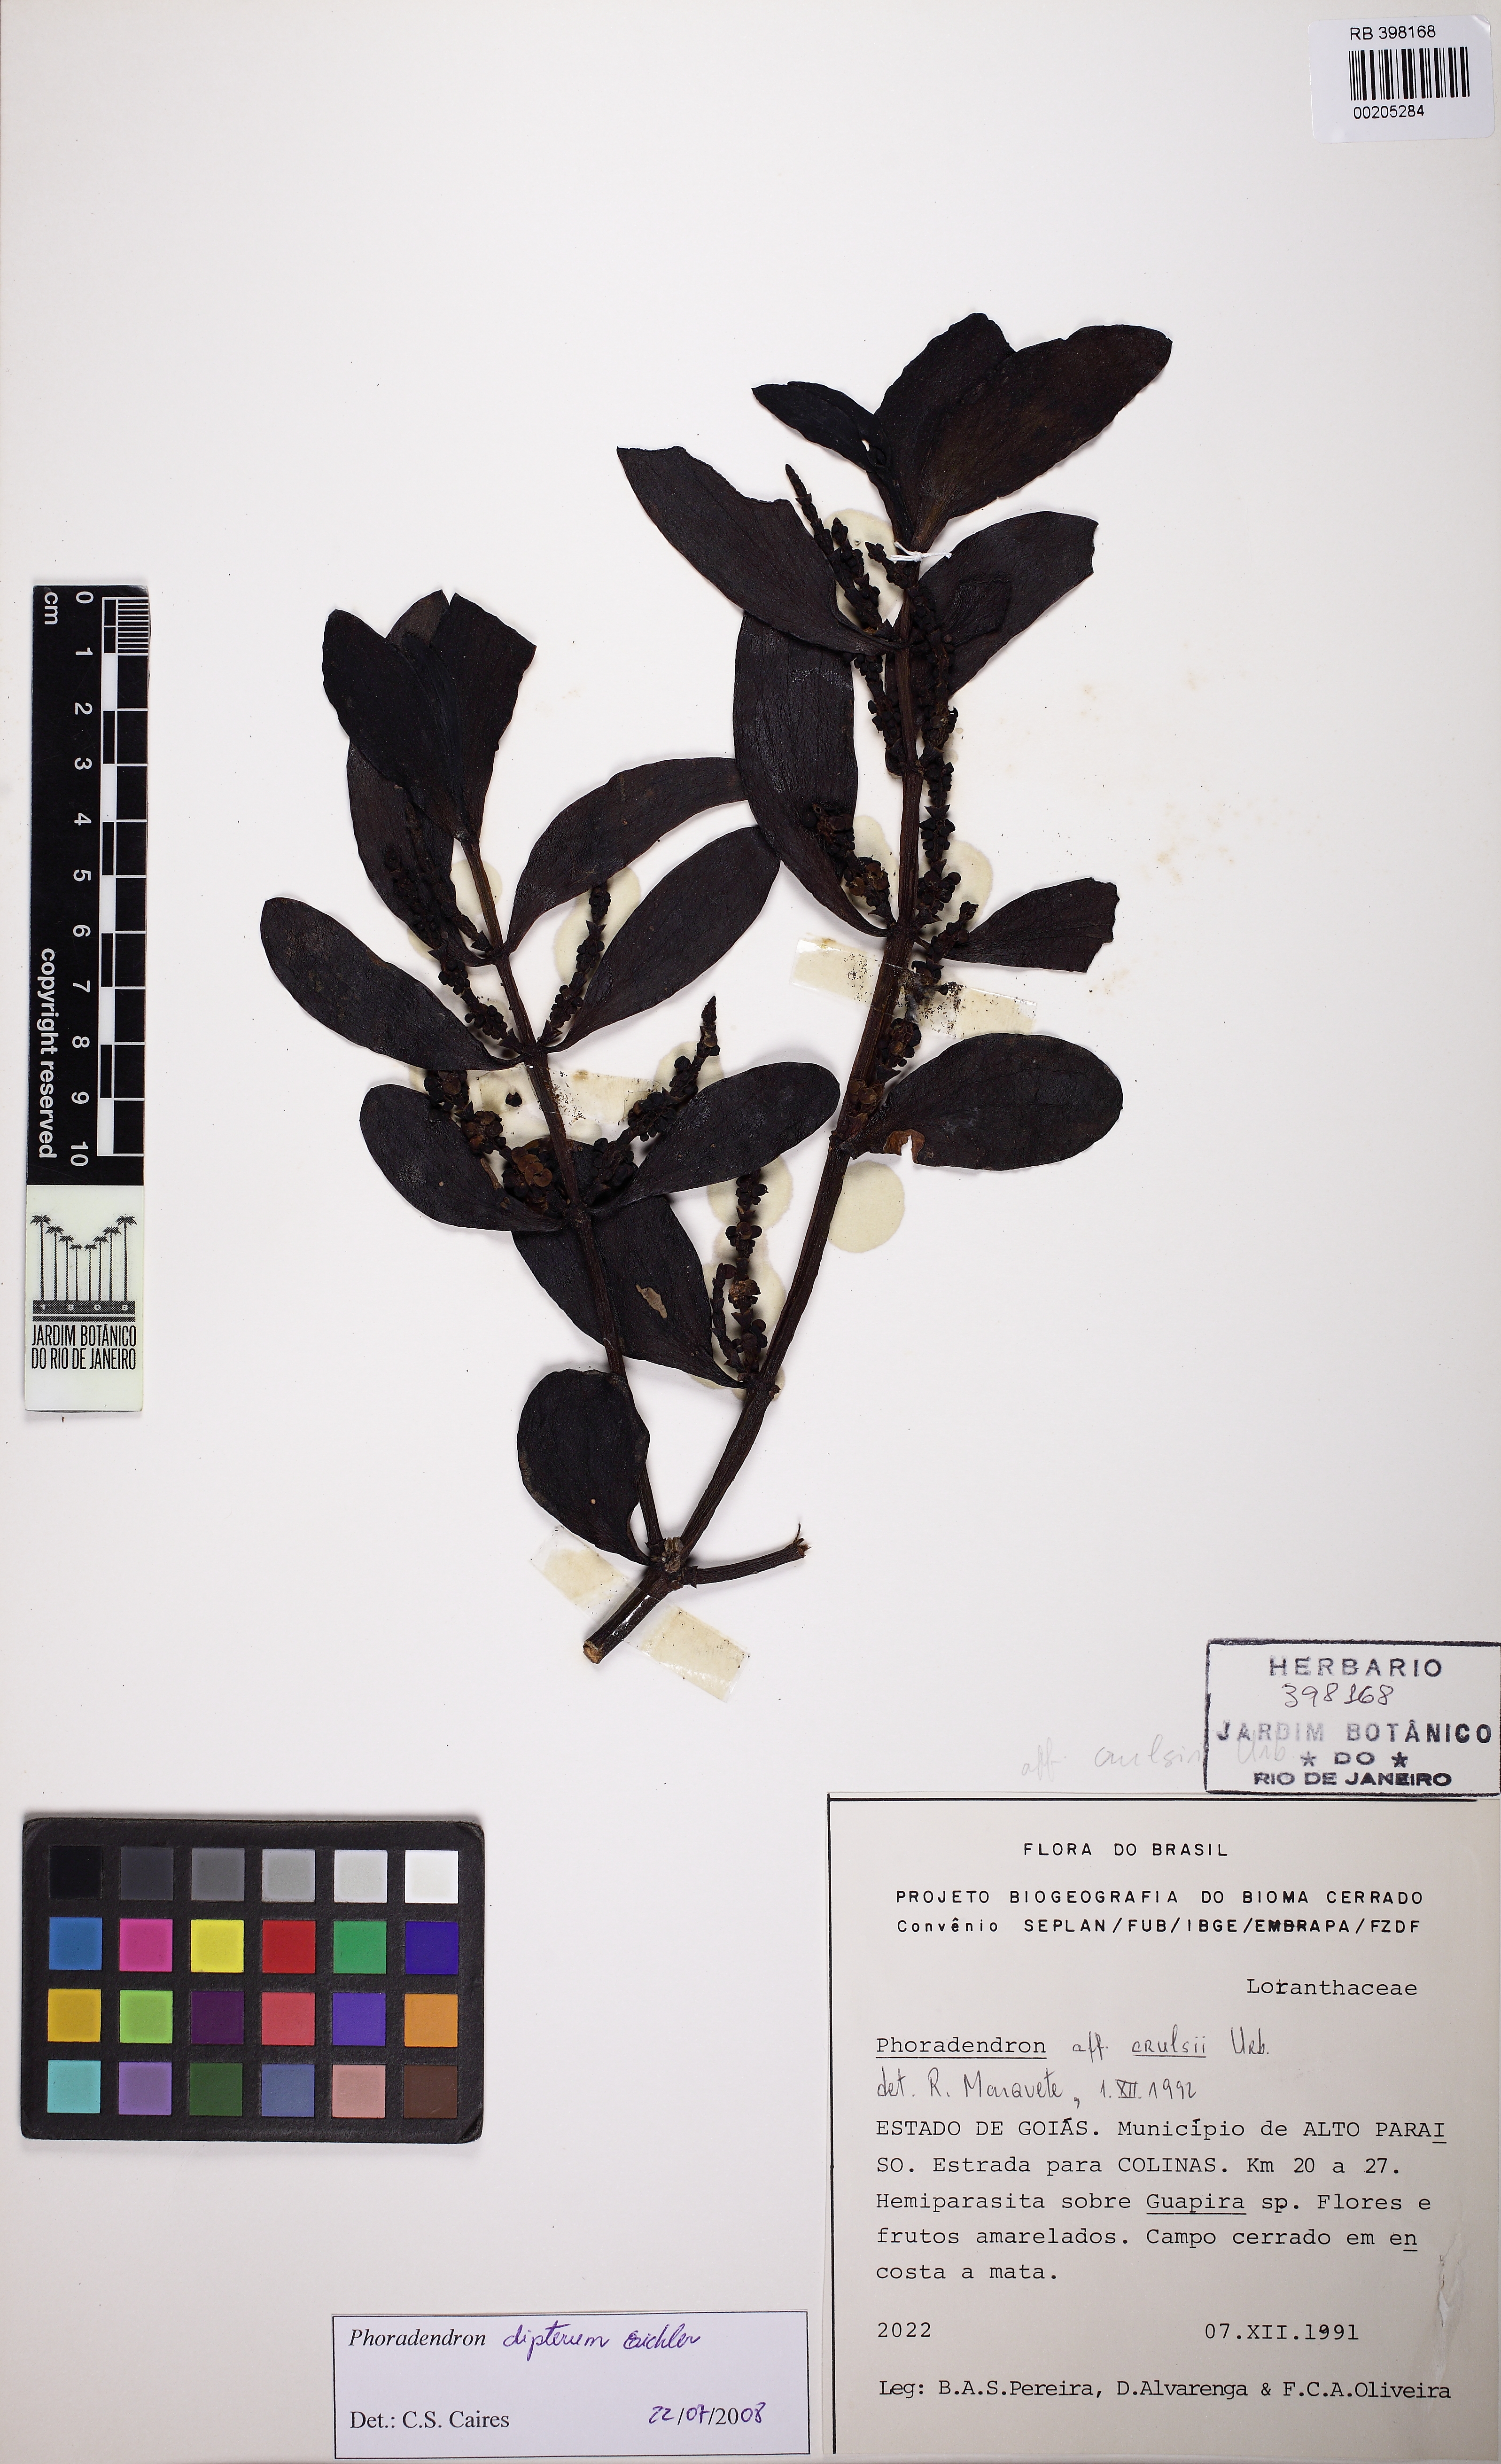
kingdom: Plantae
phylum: Tracheophyta
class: Magnoliopsida
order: Santalales
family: Viscaceae
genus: Phoradendron
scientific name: Phoradendron dipterum
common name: Fourpart mistletoe
